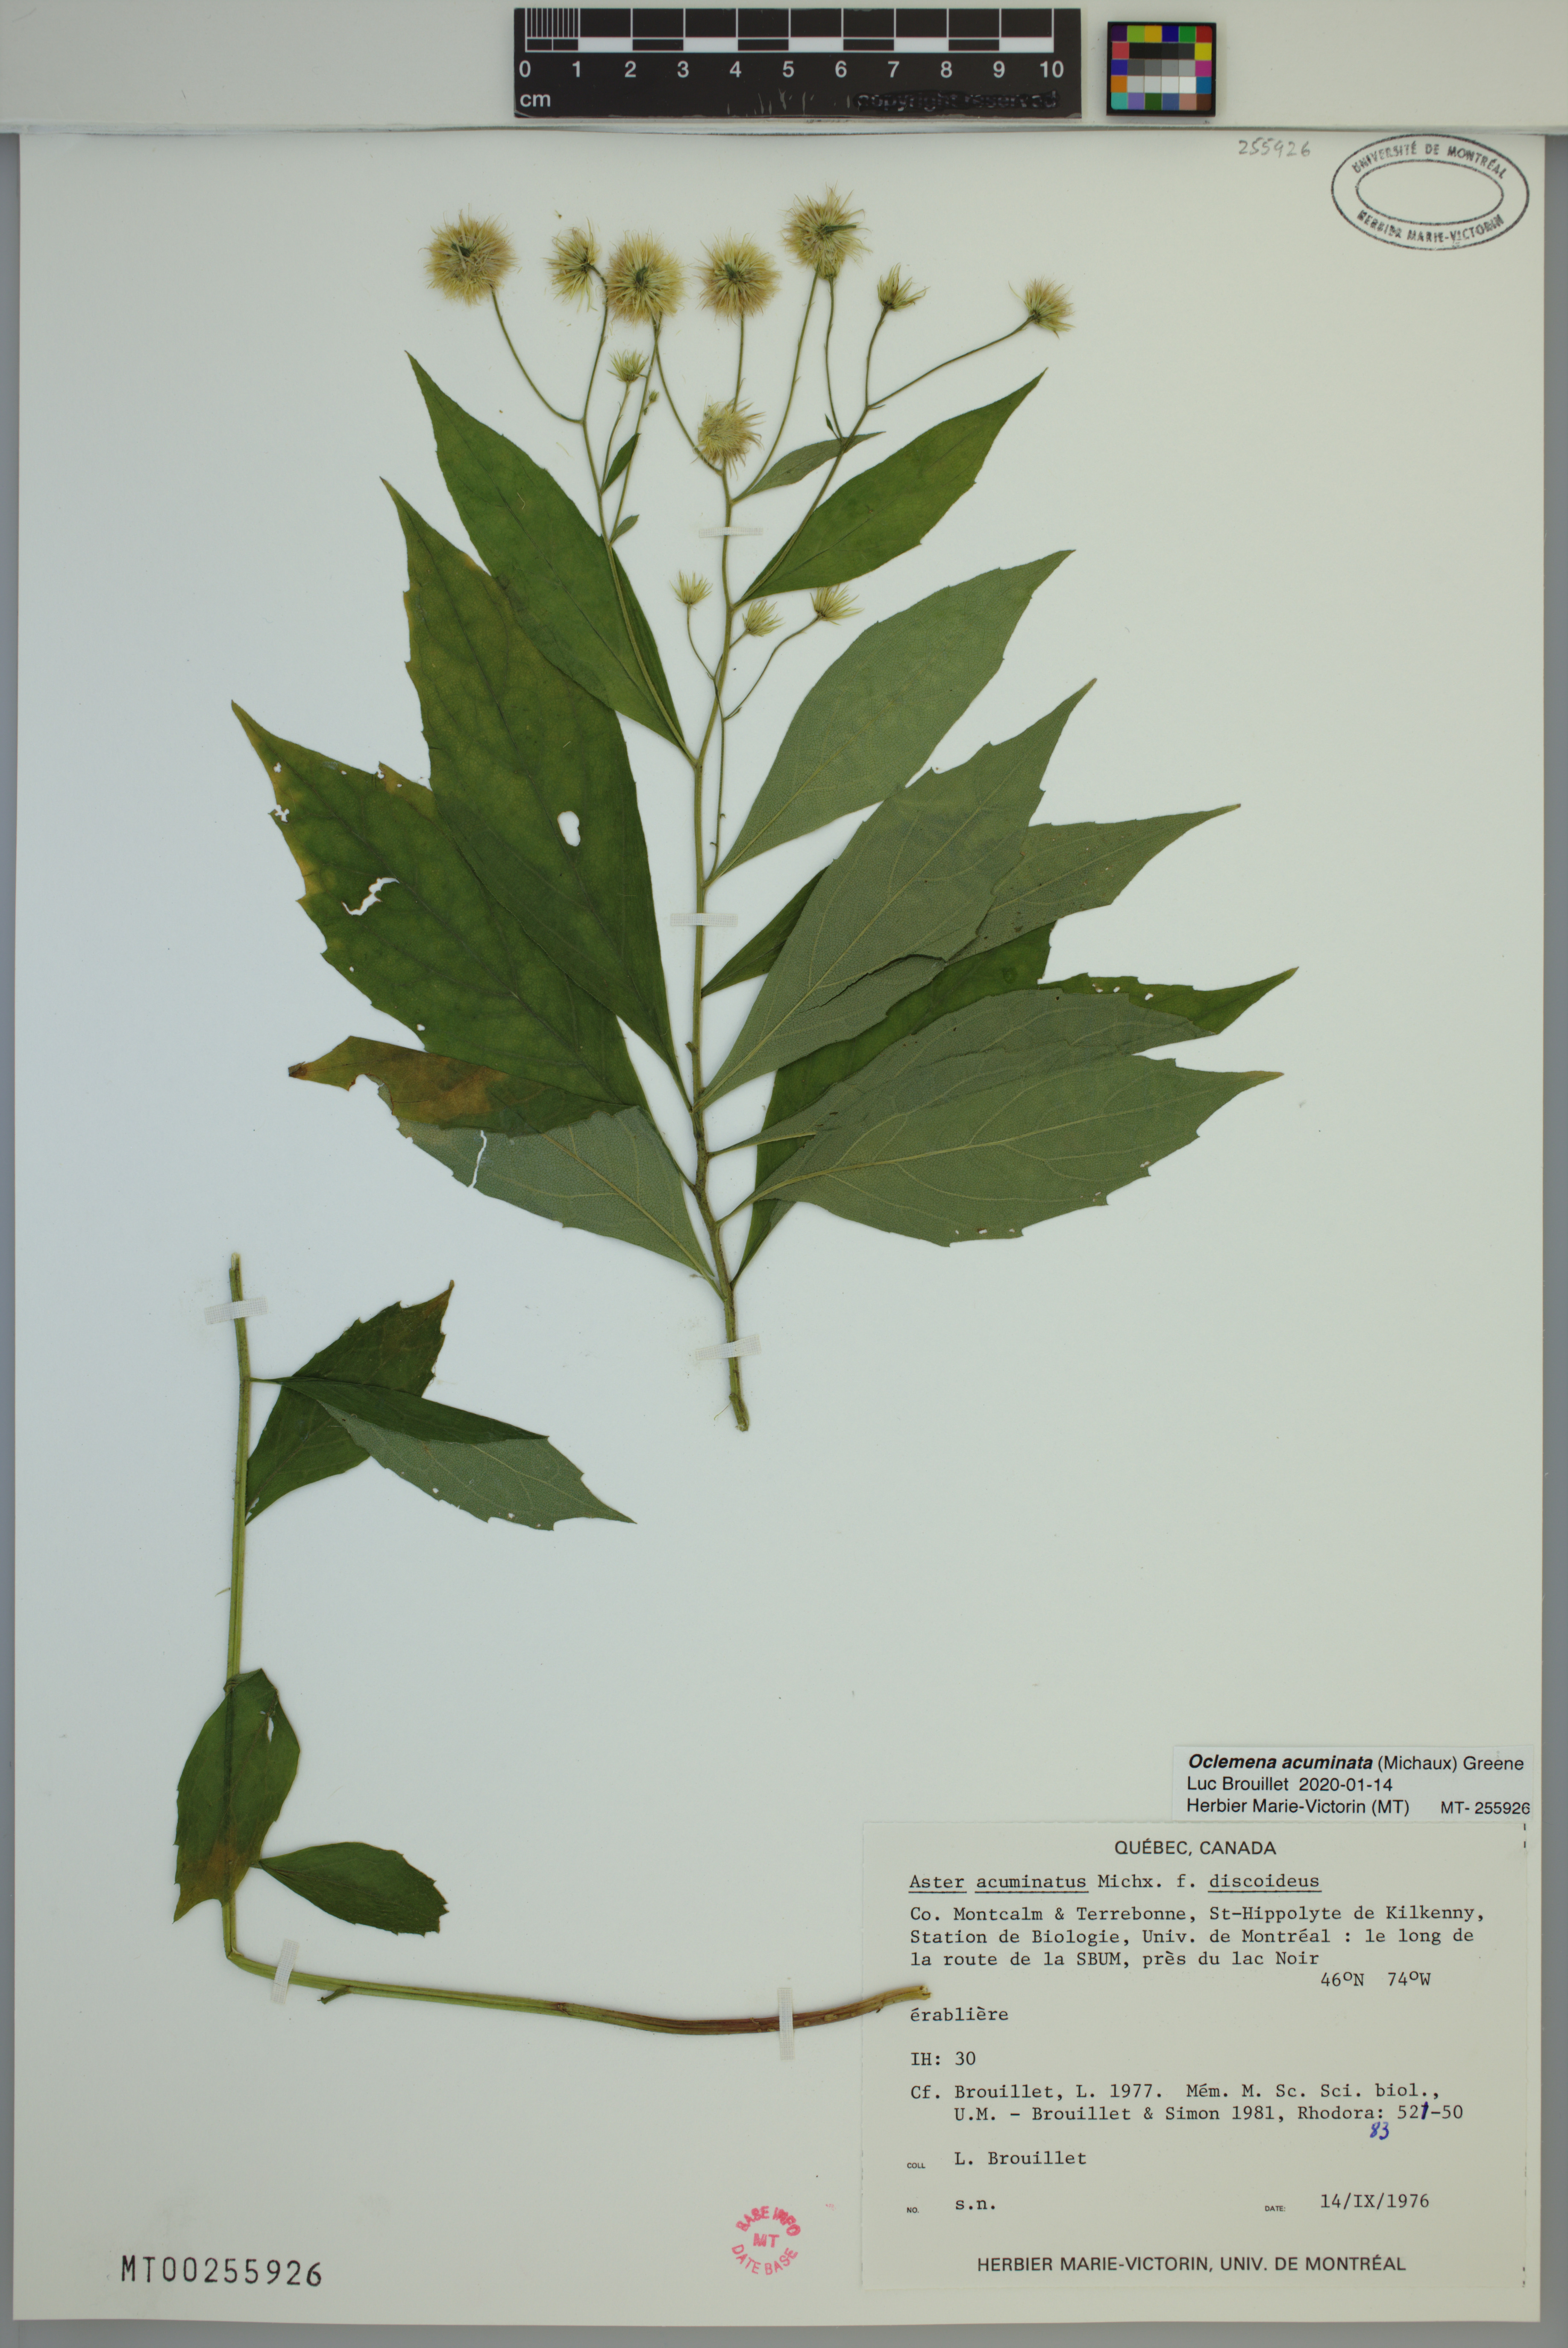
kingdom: Plantae
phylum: Tracheophyta
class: Magnoliopsida
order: Asterales
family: Asteraceae
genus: Oclemena
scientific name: Oclemena acuminata
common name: Mountain aster
